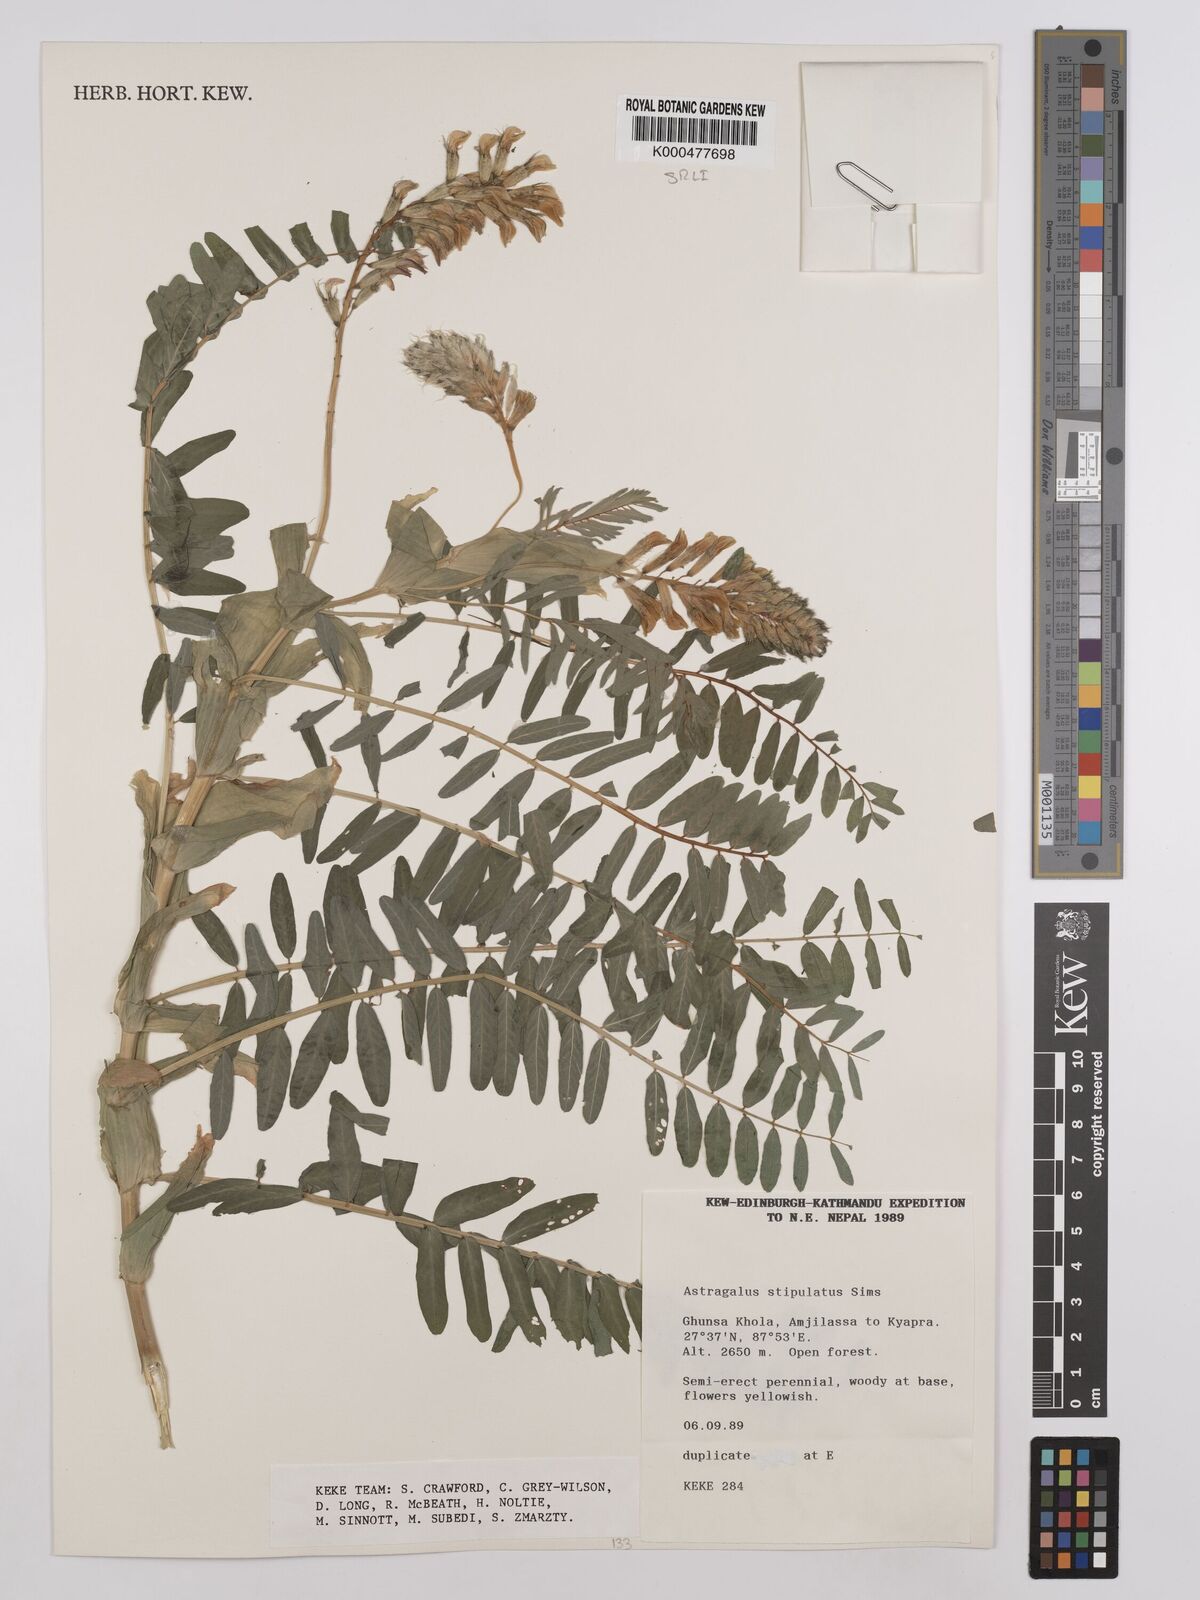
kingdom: Plantae
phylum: Tracheophyta
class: Magnoliopsida
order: Fabales
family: Fabaceae
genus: Astragalus
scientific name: Astragalus stipulatus
